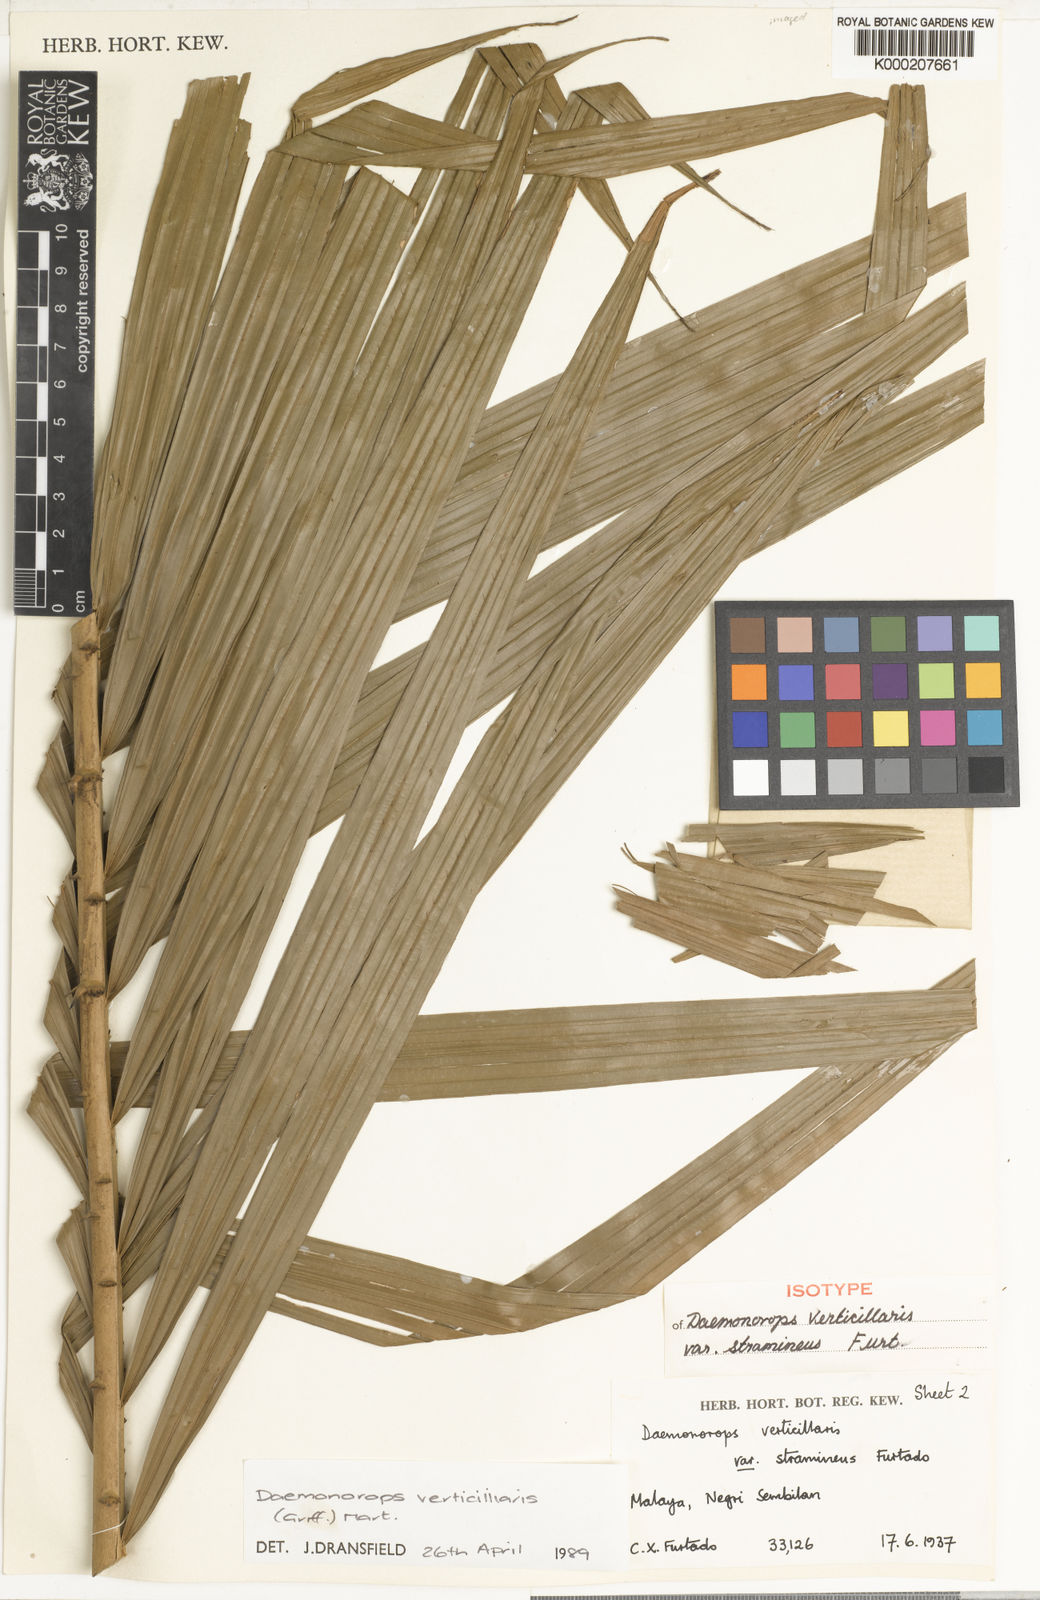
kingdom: Plantae
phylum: Tracheophyta
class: Liliopsida
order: Arecales
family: Arecaceae
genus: Calamus
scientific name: Calamus verticillaris
